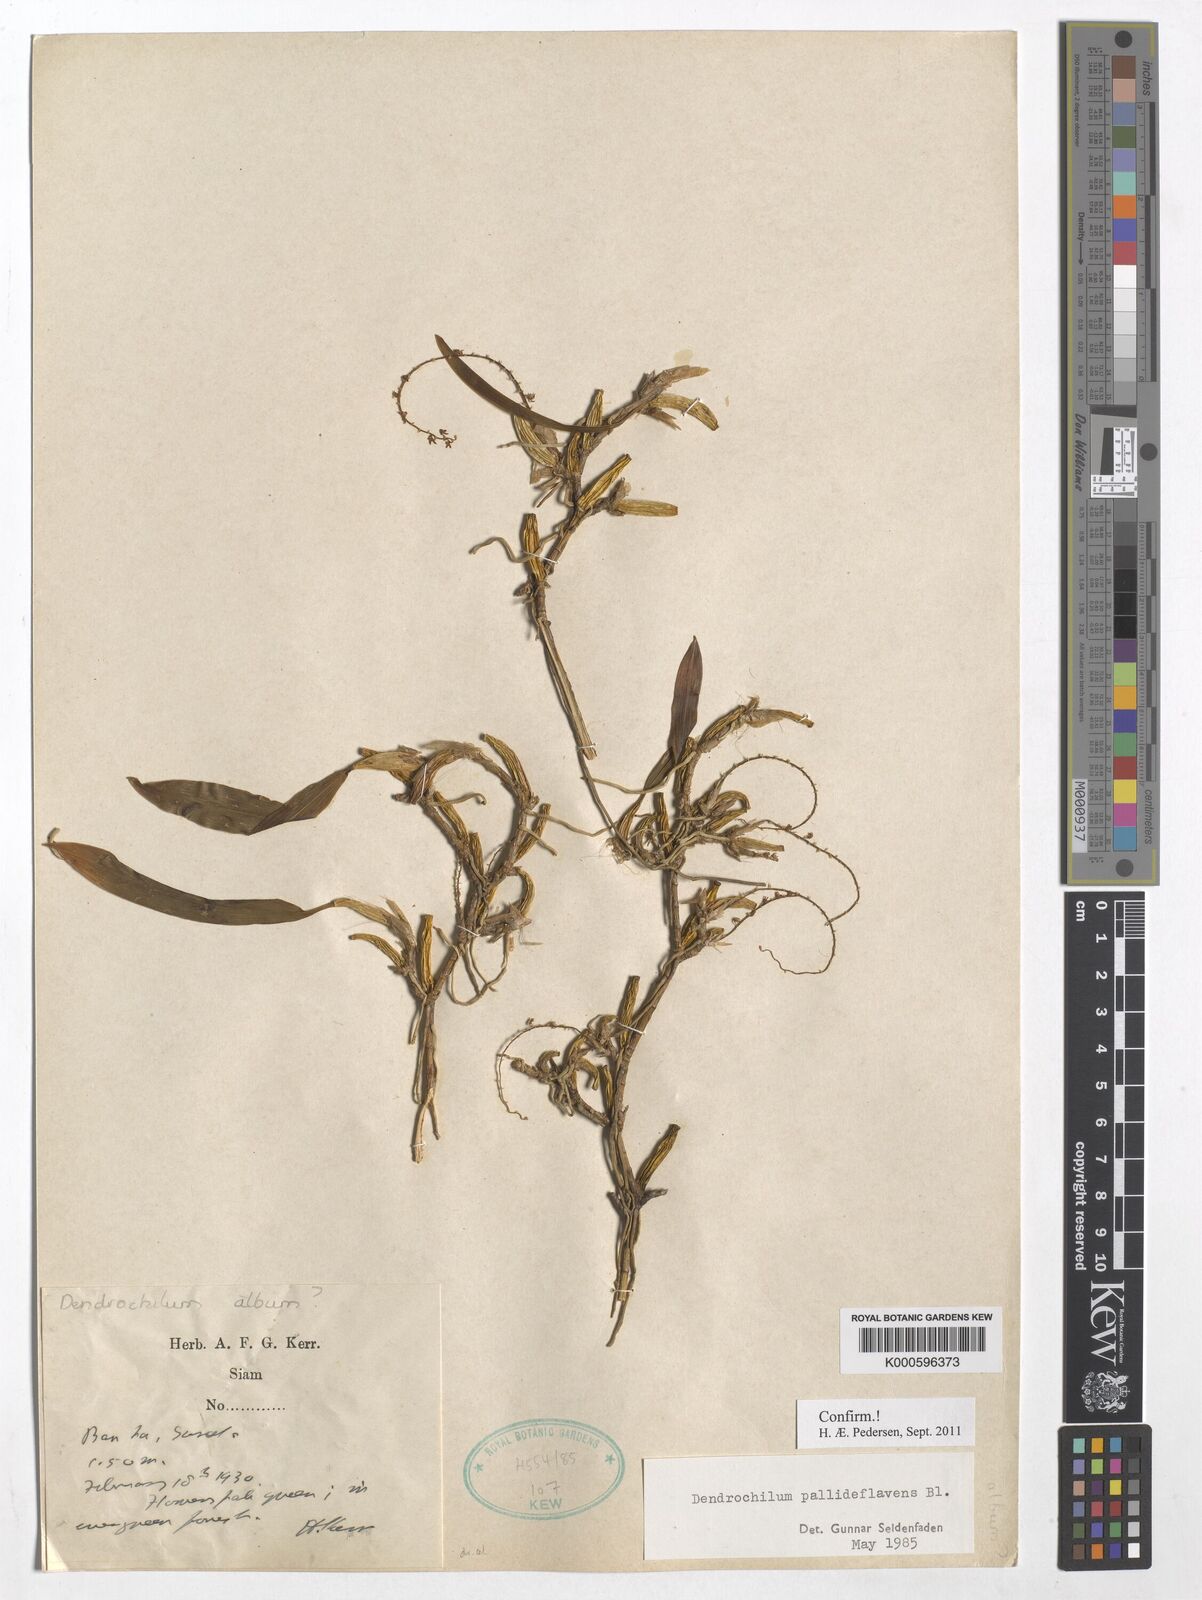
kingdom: Plantae
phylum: Tracheophyta
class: Liliopsida
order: Asparagales
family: Orchidaceae
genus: Coelogyne
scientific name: Coelogyne pallidiflavens
